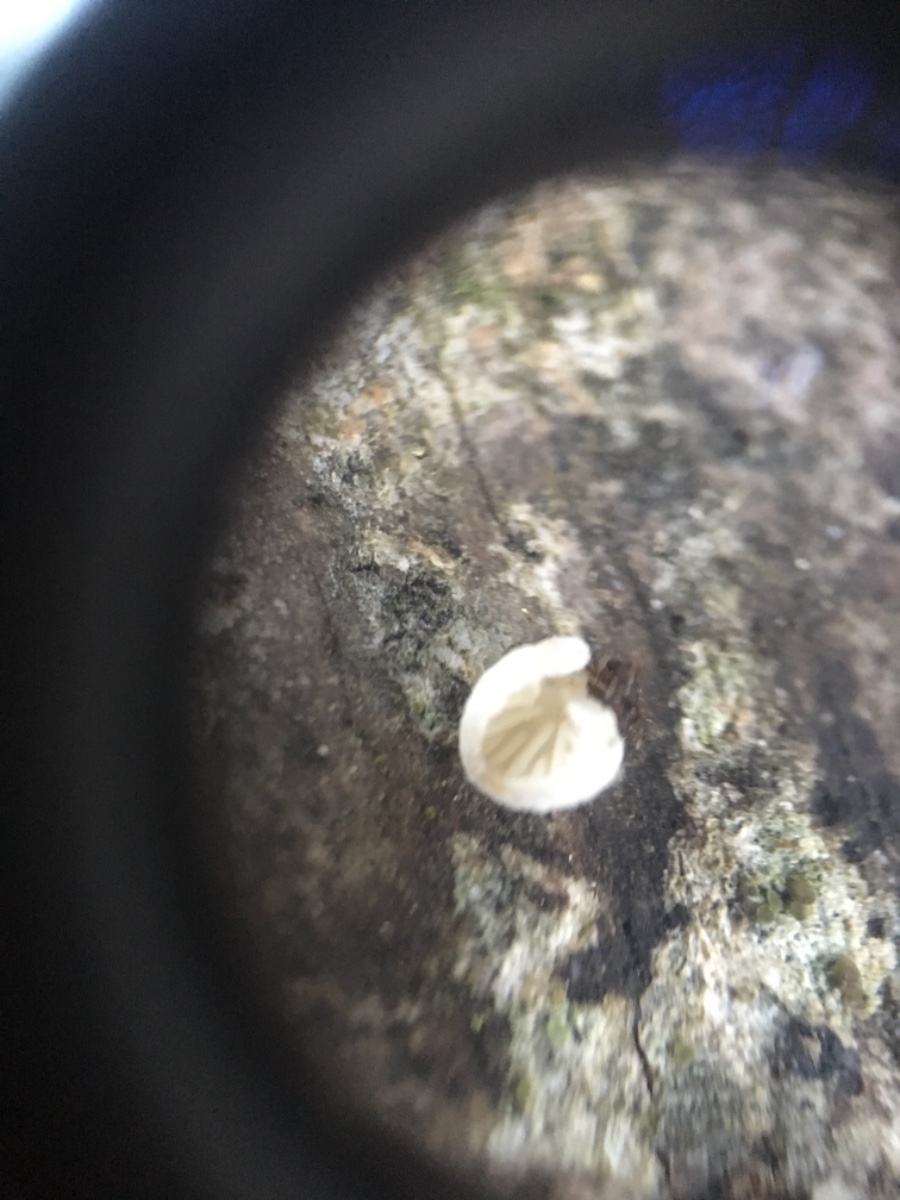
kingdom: Fungi
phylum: Basidiomycota
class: Agaricomycetes
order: Agaricales
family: Entolomataceae
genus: Clitopilus
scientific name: Clitopilus hobsonii
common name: Miller's oysterling
